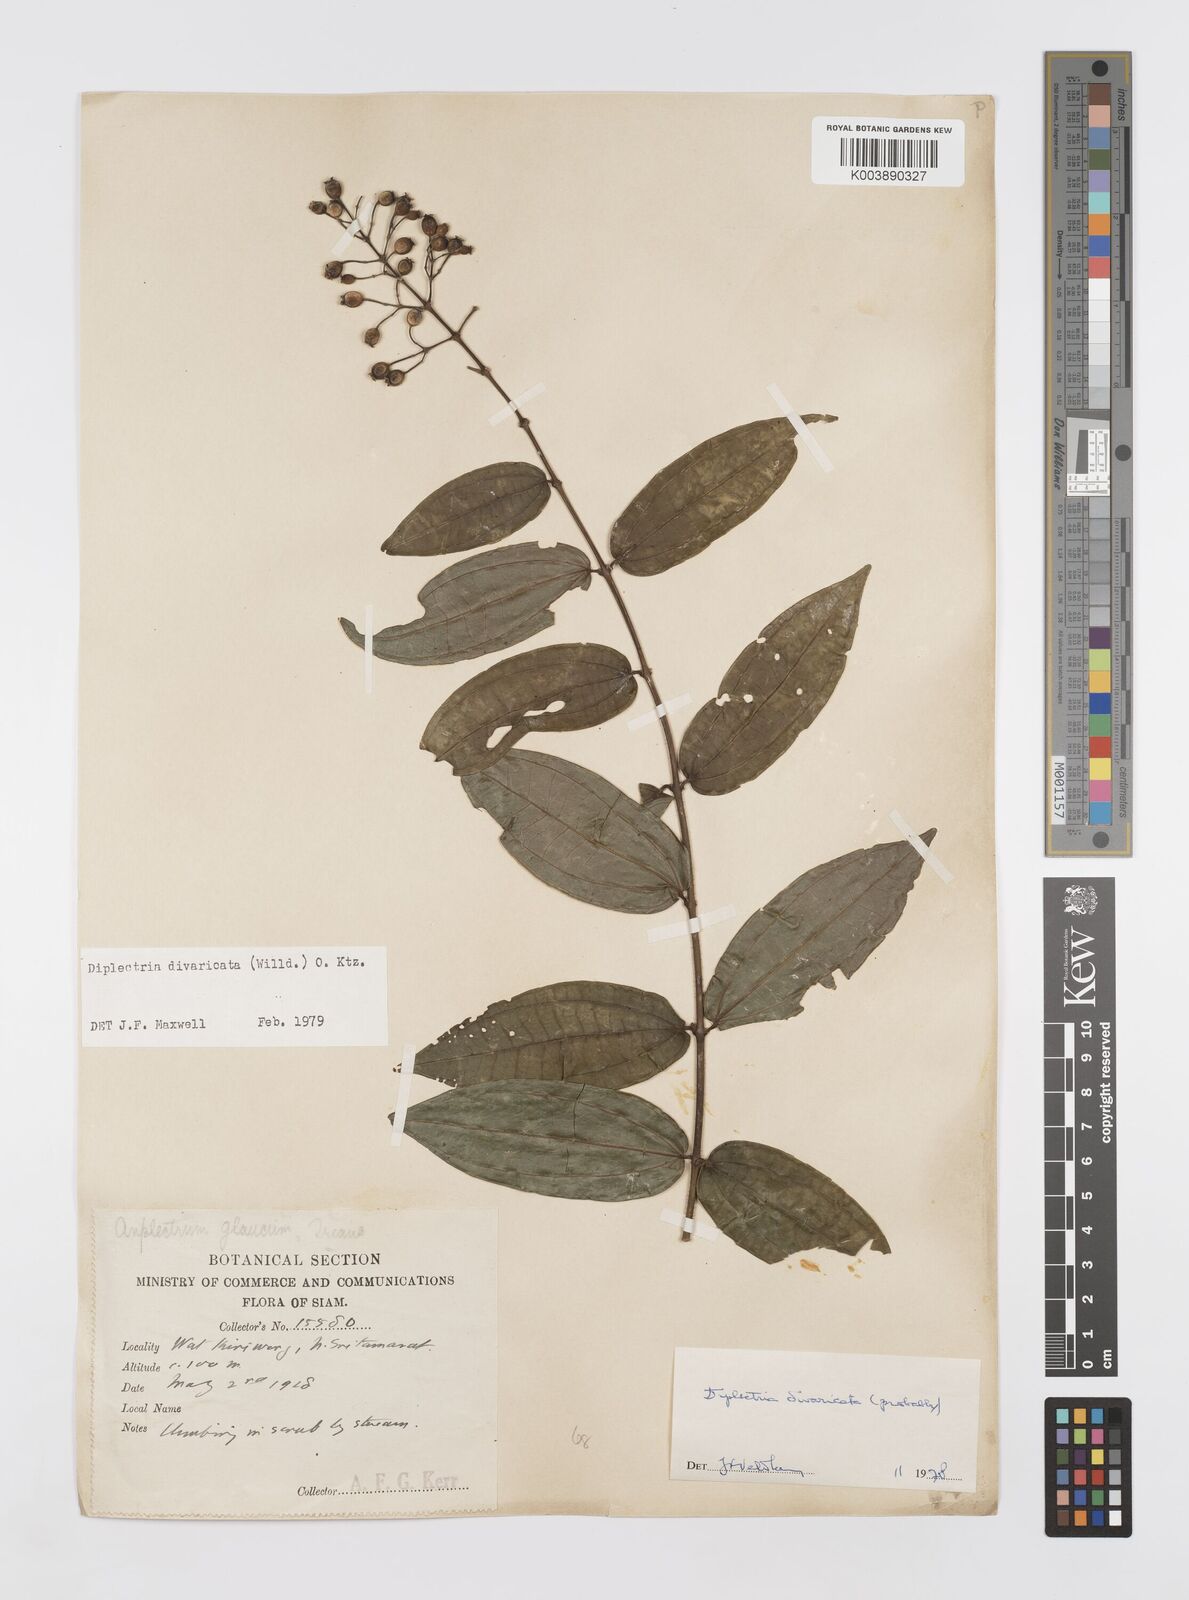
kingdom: Plantae
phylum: Tracheophyta
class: Magnoliopsida
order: Myrtales
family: Melastomataceae
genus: Diplectria
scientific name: Diplectria divaricata
